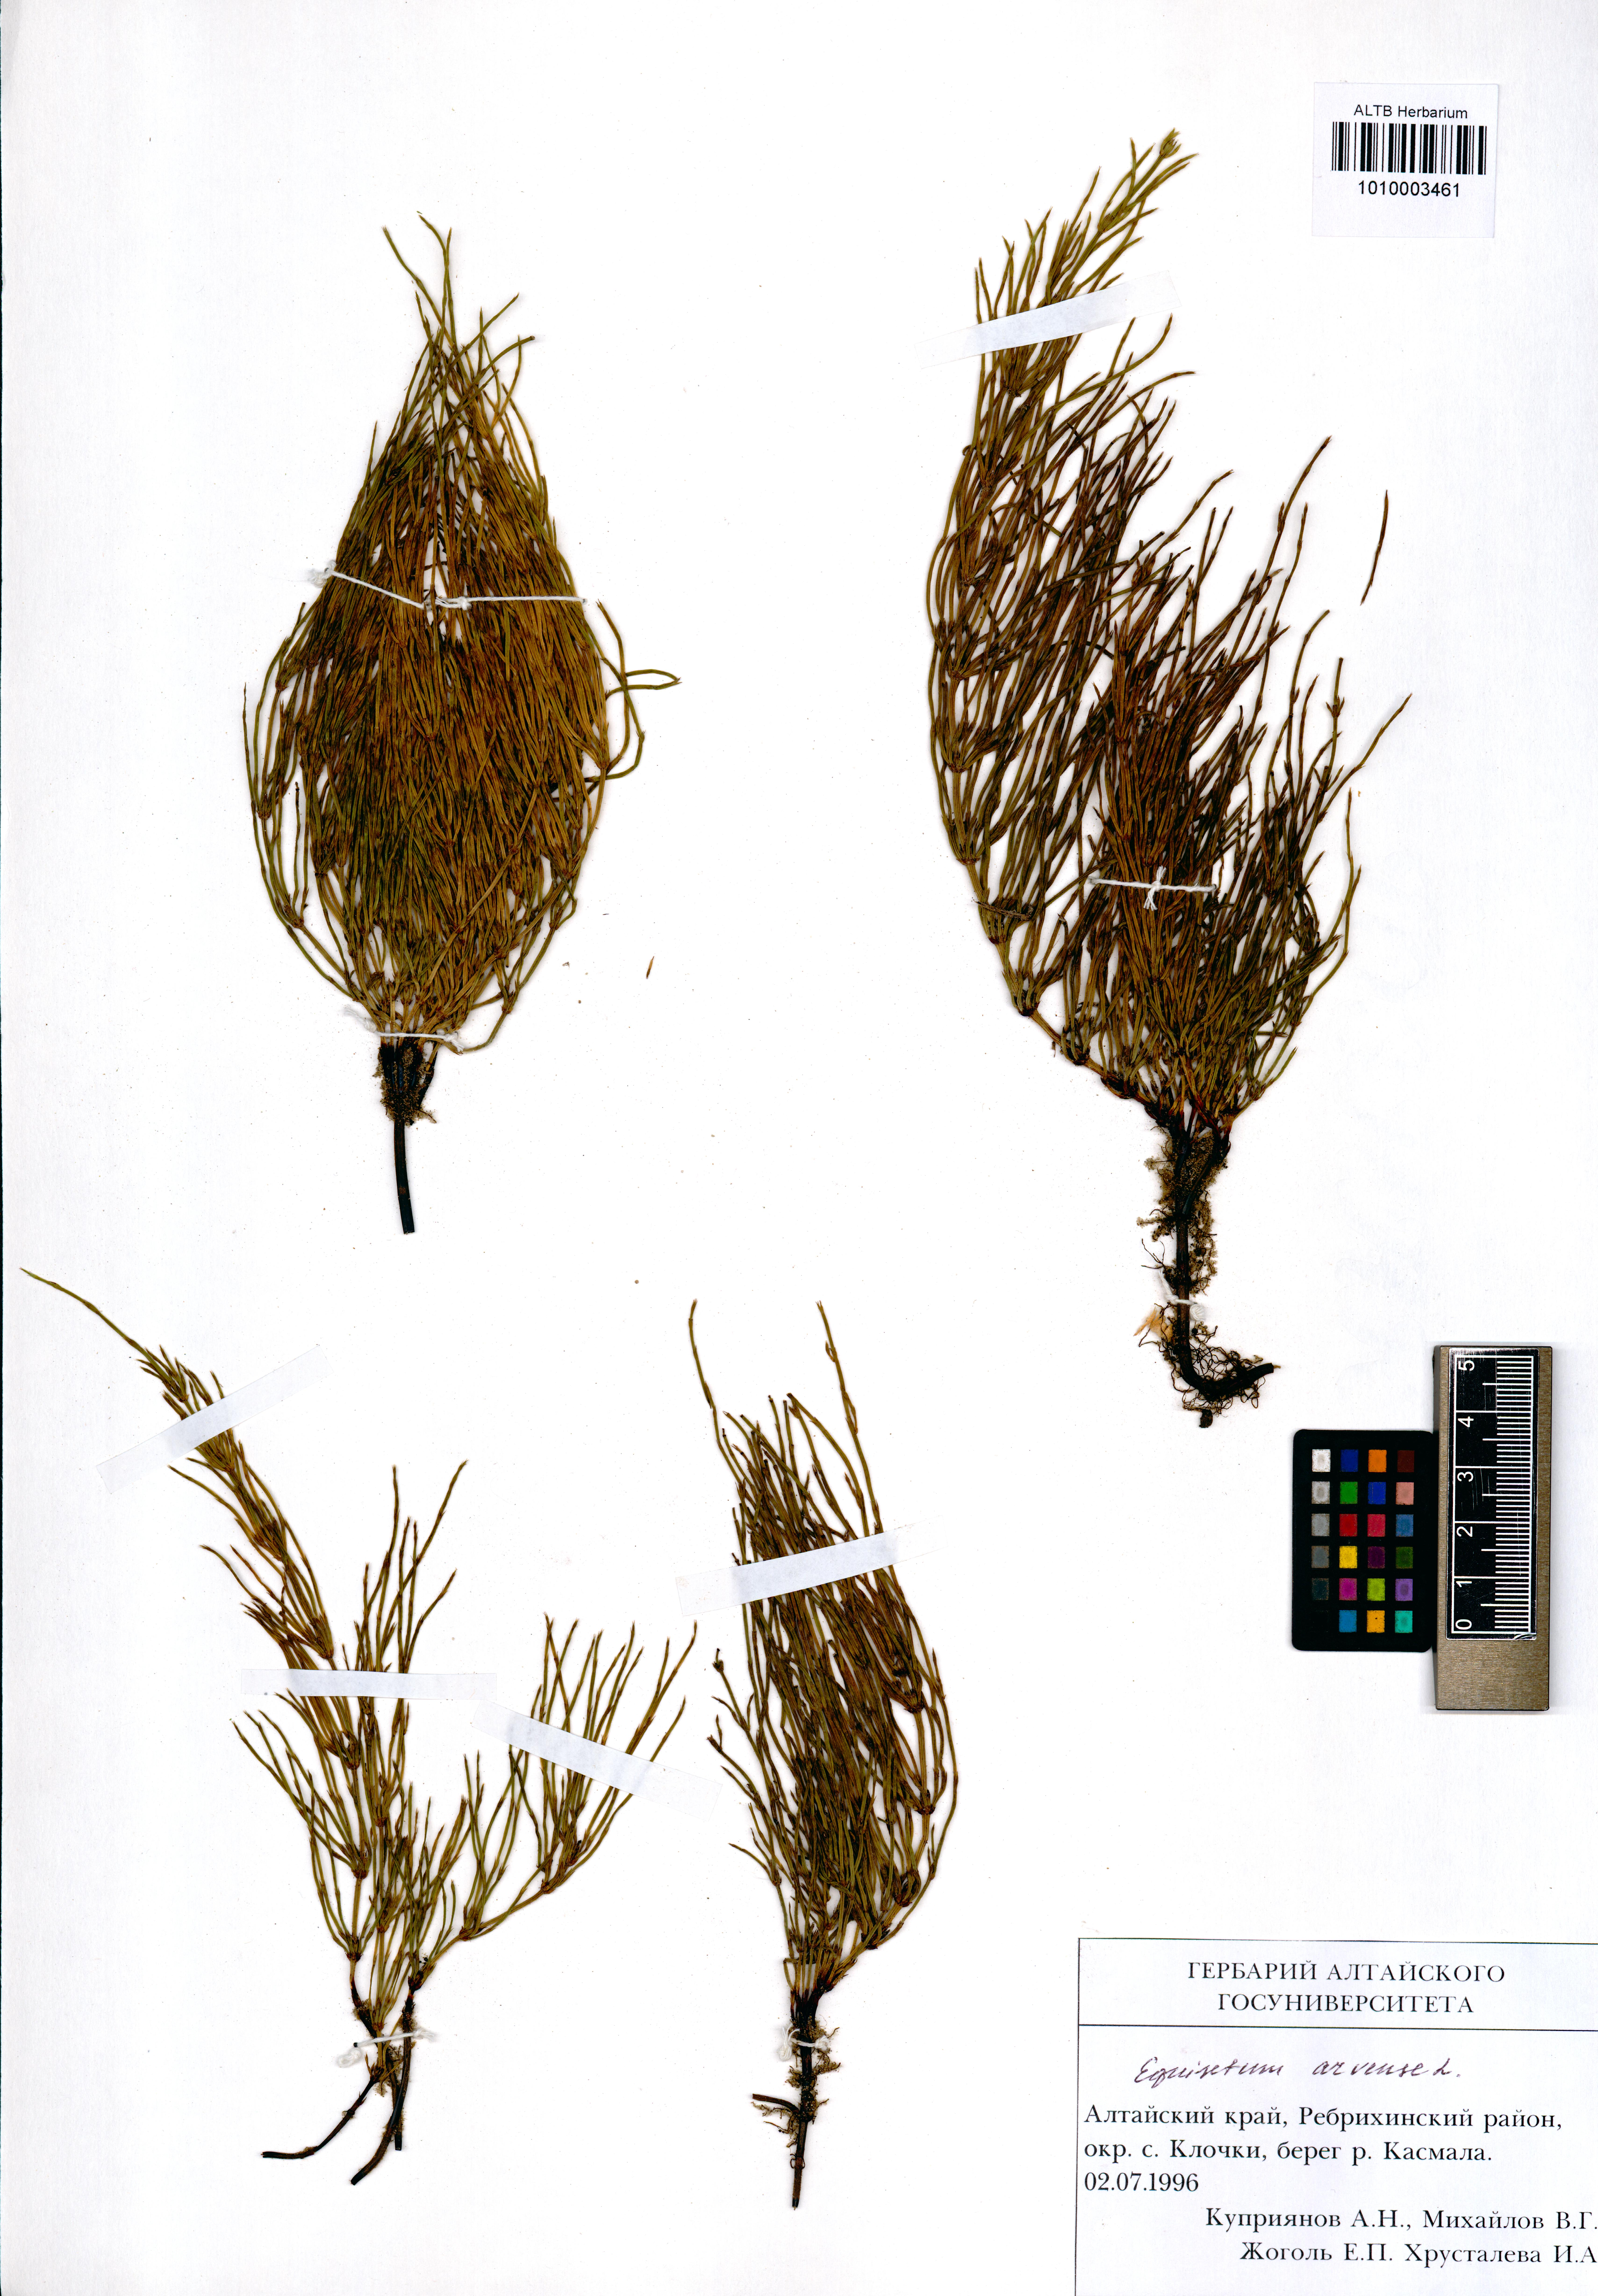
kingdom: Plantae
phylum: Tracheophyta
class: Polypodiopsida
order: Equisetales
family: Equisetaceae
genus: Equisetum
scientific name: Equisetum arvense
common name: Field horsetail
